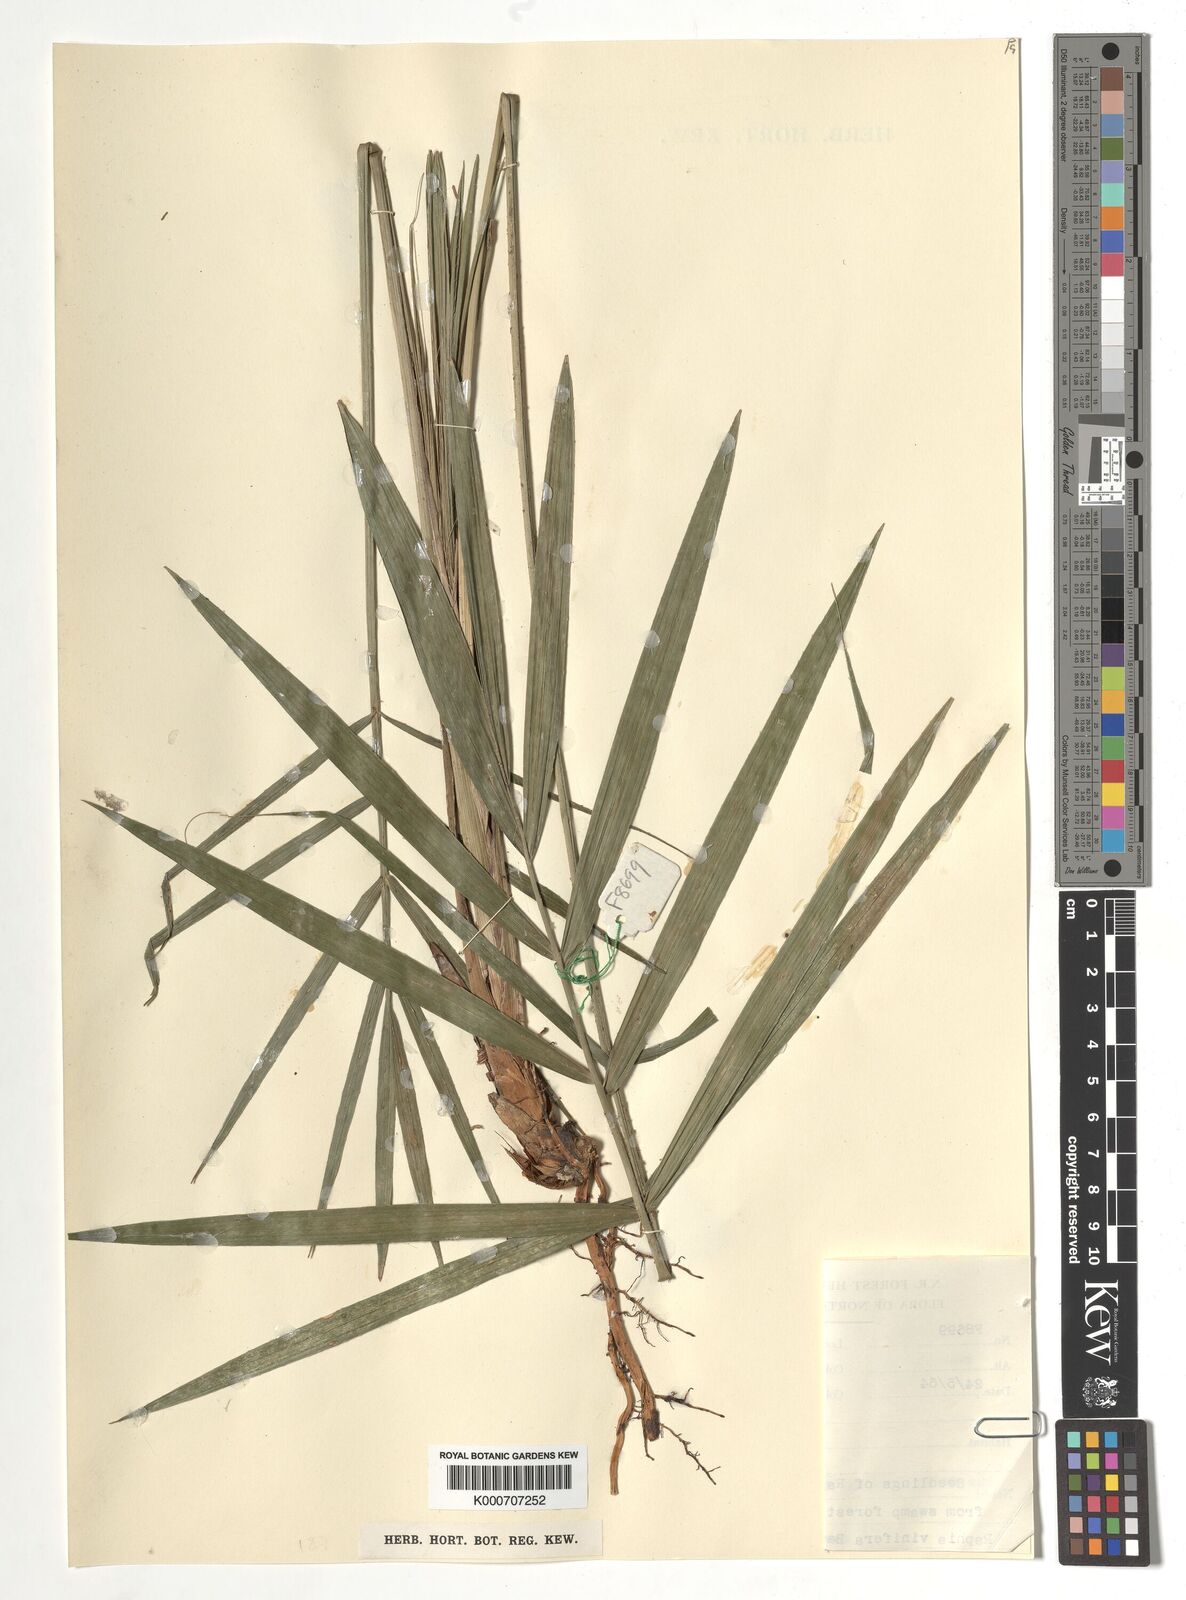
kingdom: Plantae
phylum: Tracheophyta
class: Liliopsida
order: Arecales
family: Arecaceae
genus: Raphia
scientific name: Raphia vinifera
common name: Raphia palm
